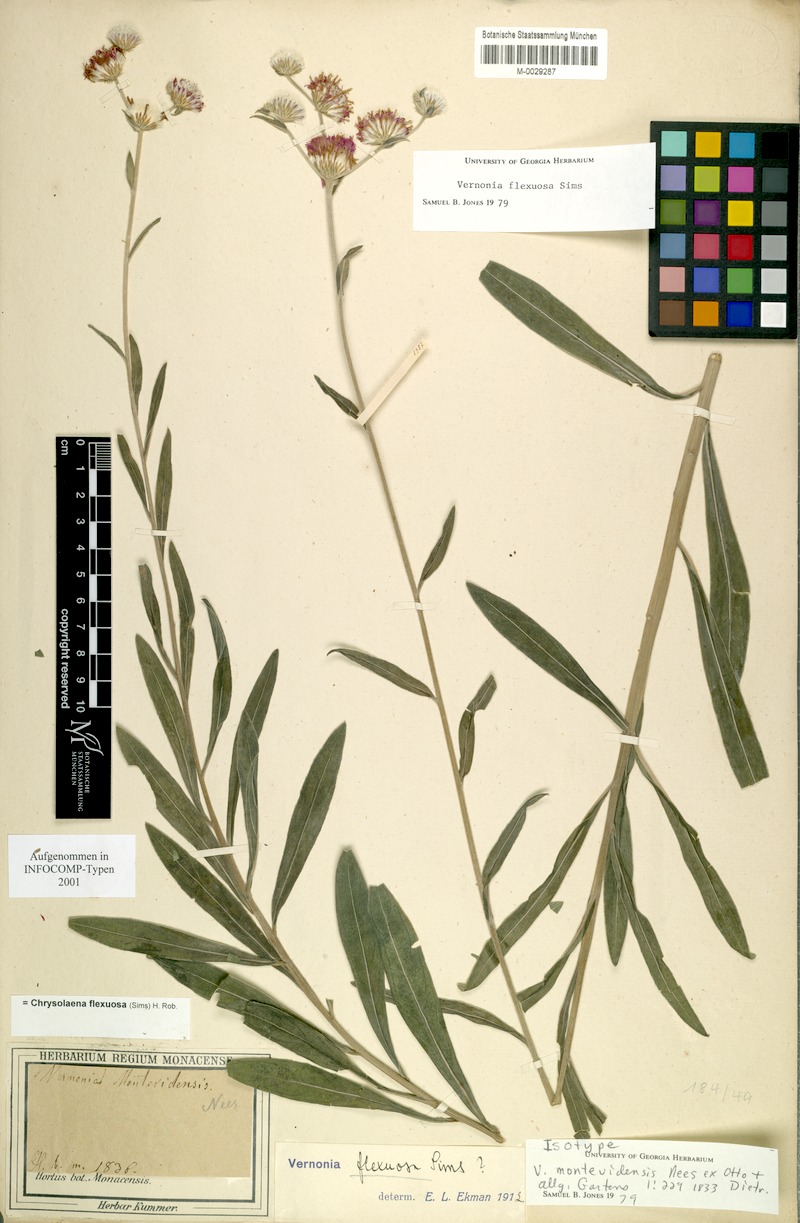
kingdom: Plantae
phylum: Tracheophyta
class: Magnoliopsida
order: Asterales
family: Asteraceae
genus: Chrysolaena
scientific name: Chrysolaena flexuosa
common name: Zig-zag vernonia
